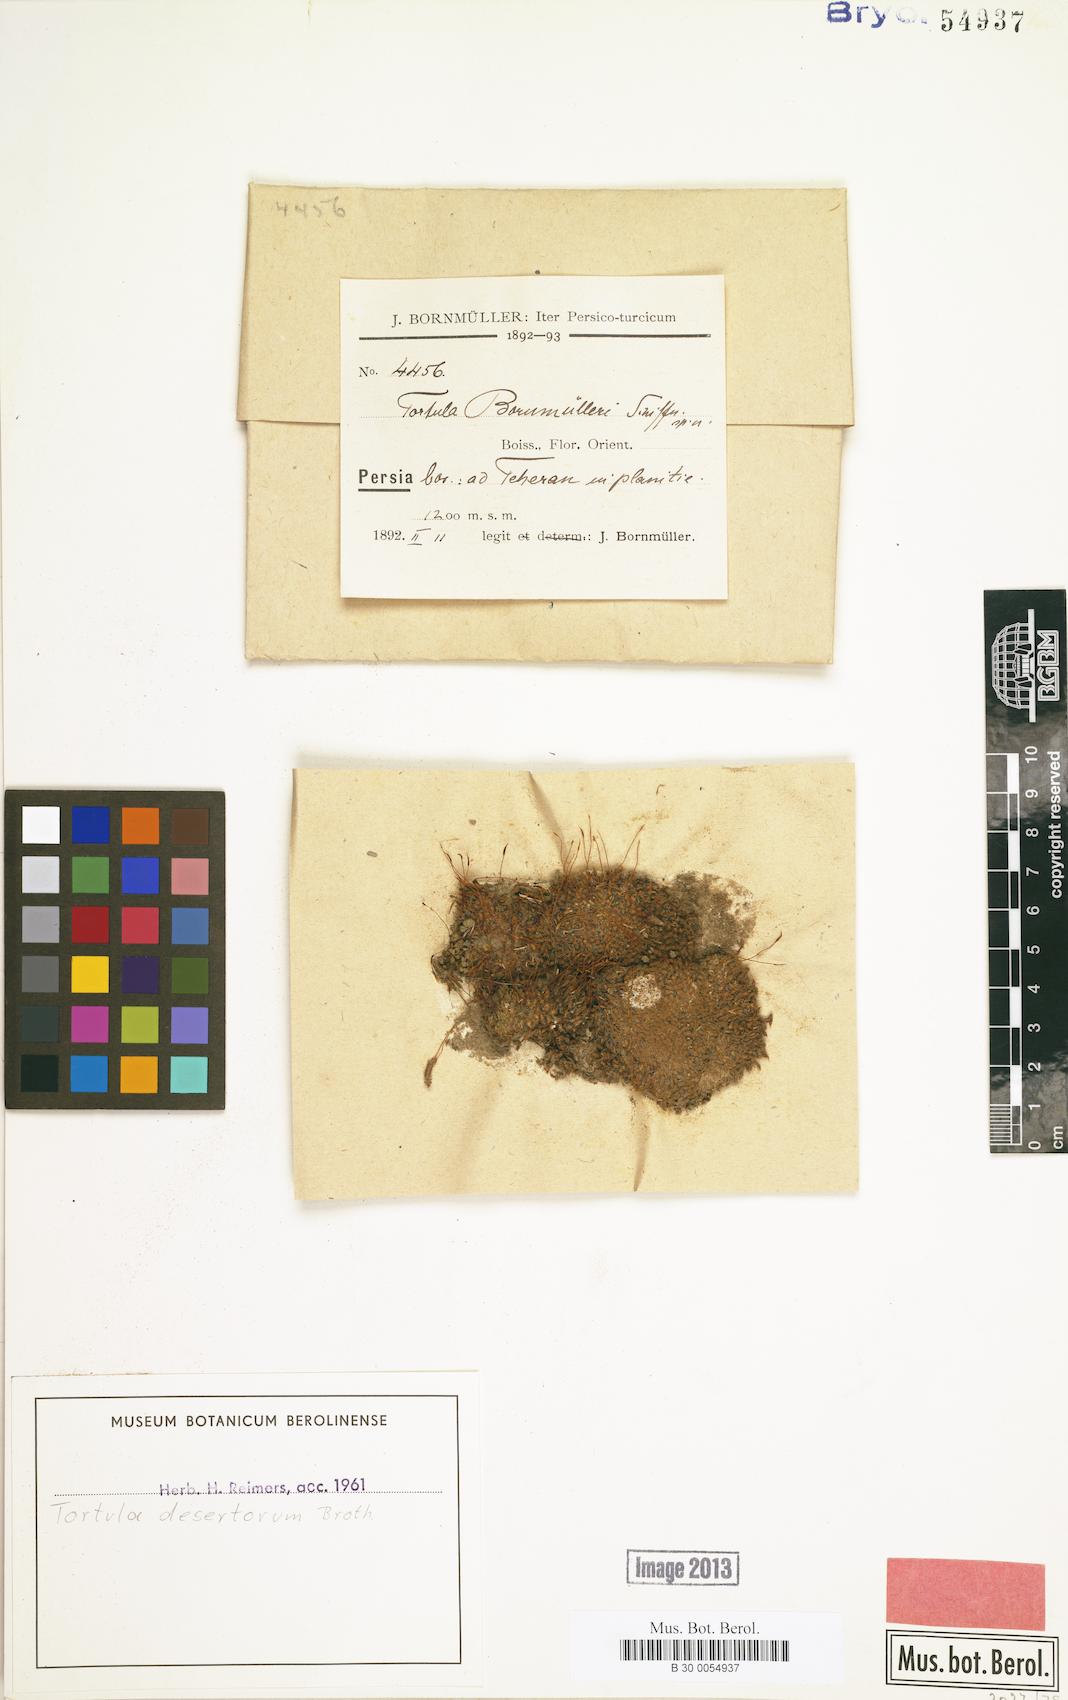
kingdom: Plantae
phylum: Bryophyta
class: Bryopsida
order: Pottiales
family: Pottiaceae
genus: Syntrichia
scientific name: Syntrichia caninervis
